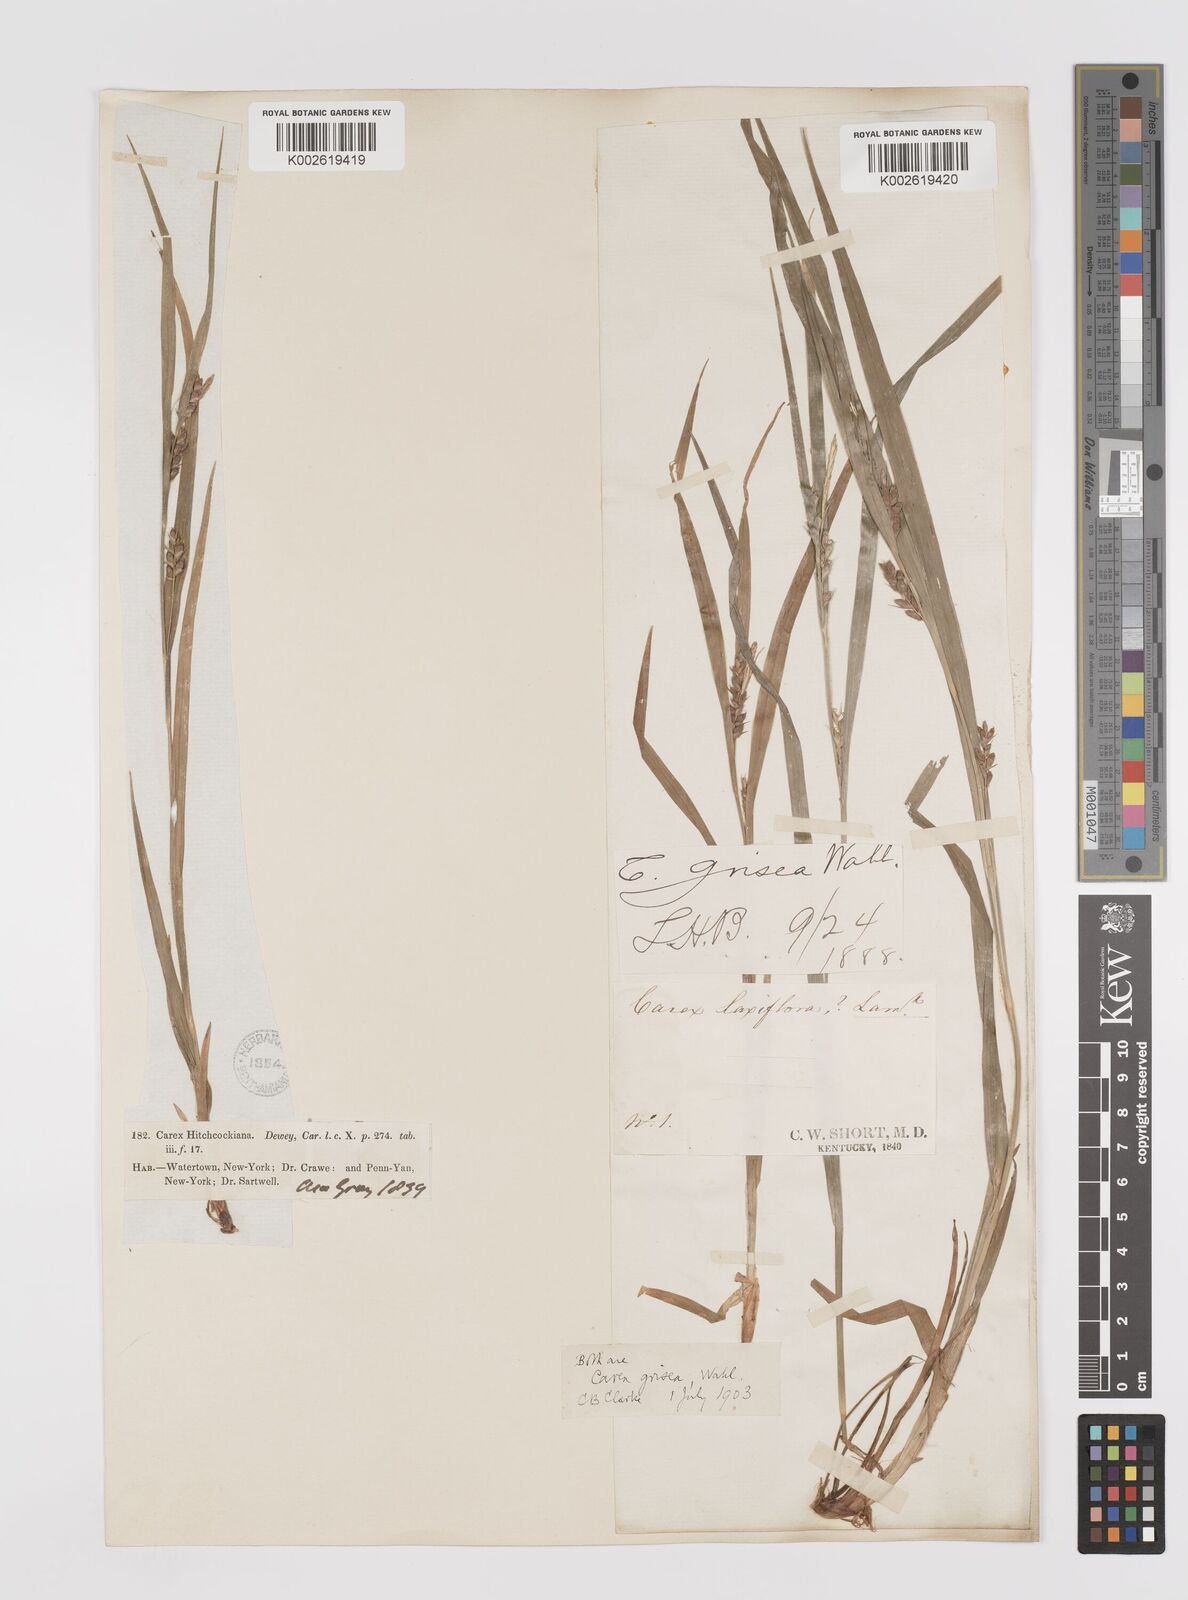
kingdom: Plantae
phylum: Tracheophyta
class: Liliopsida
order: Poales
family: Cyperaceae
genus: Carex
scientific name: Carex grisea
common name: Eastern narrow-leaved sedge
